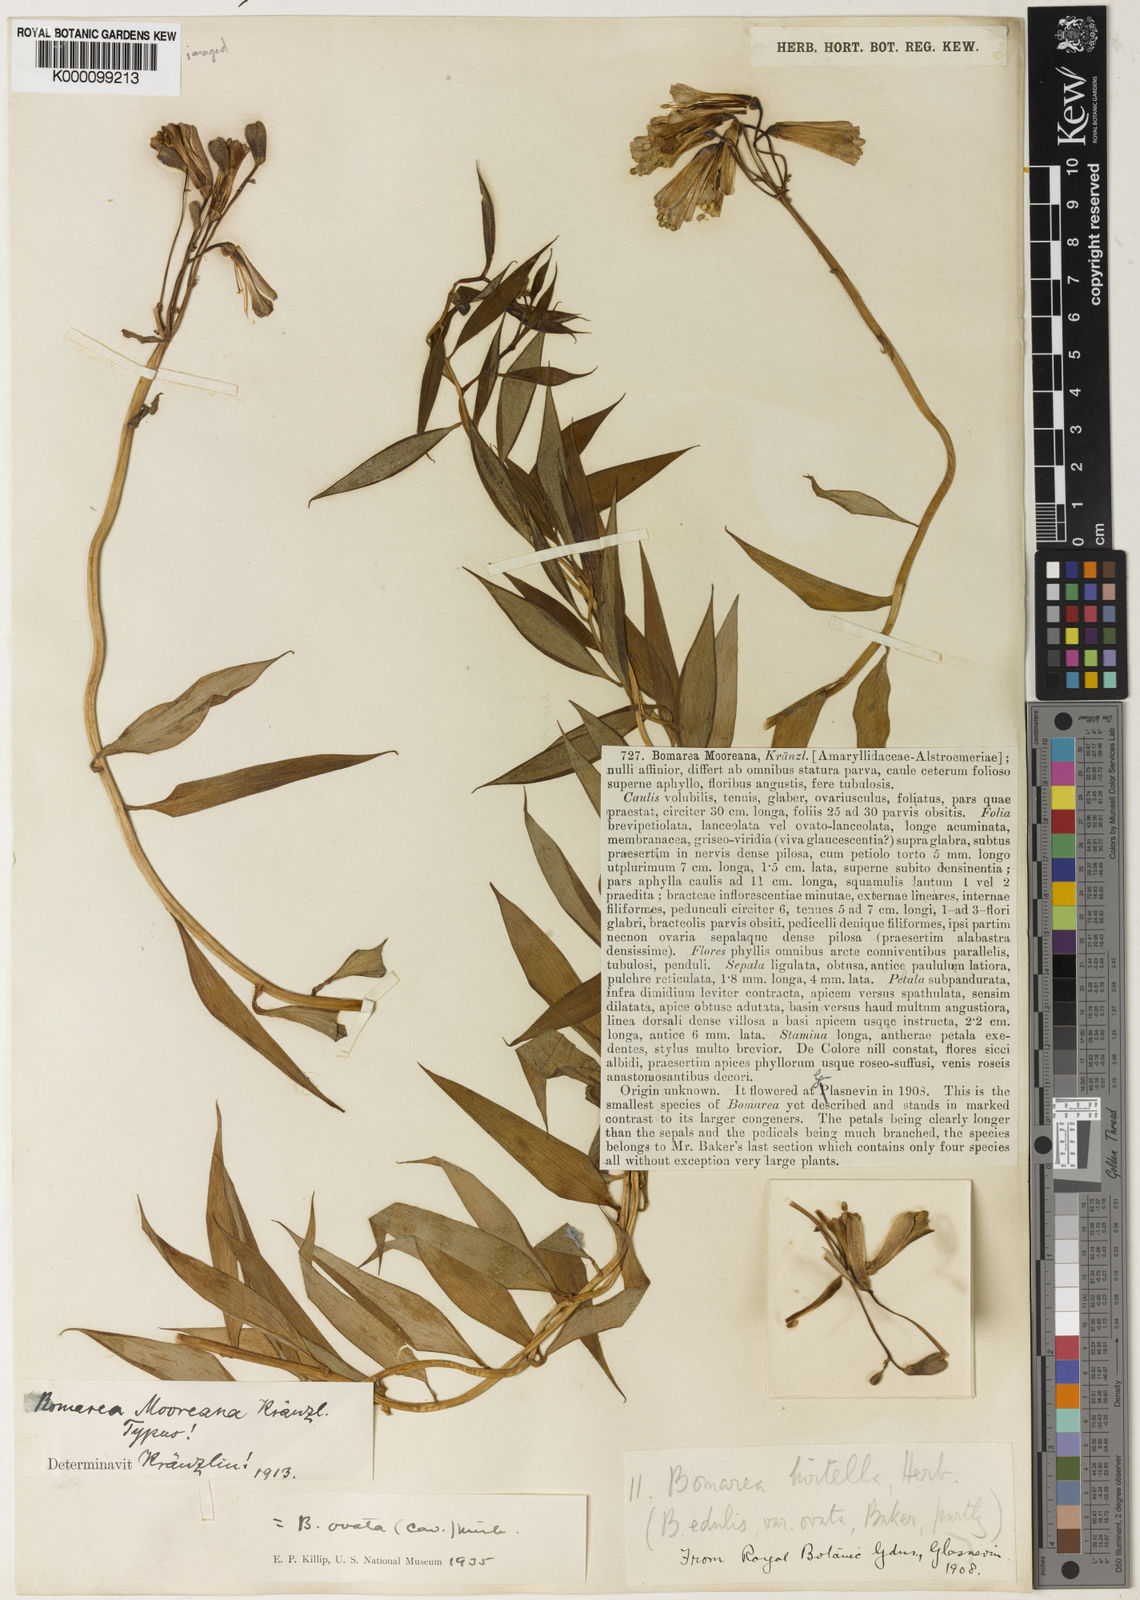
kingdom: Plantae
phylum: Tracheophyta
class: Liliopsida
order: Liliales
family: Alstroemeriaceae
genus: Bomarea
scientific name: Bomarea ovata
